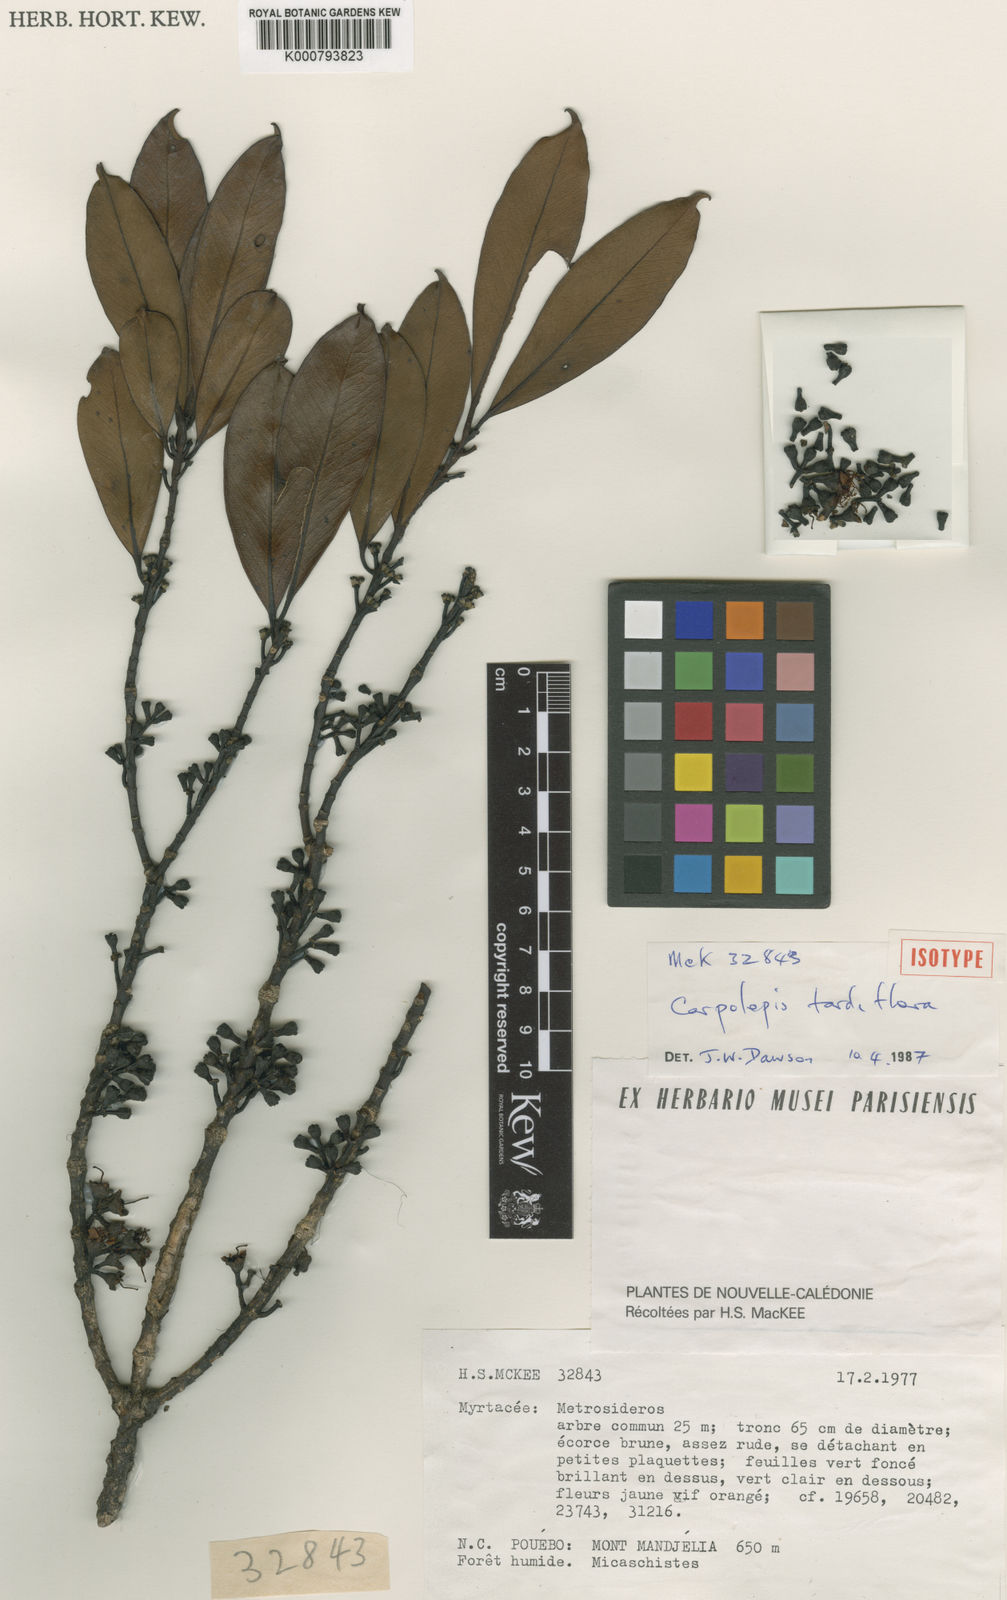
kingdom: Plantae
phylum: Tracheophyta
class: Magnoliopsida
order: Myrtales
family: Myrtaceae
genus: Metrosideros
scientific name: Metrosideros
